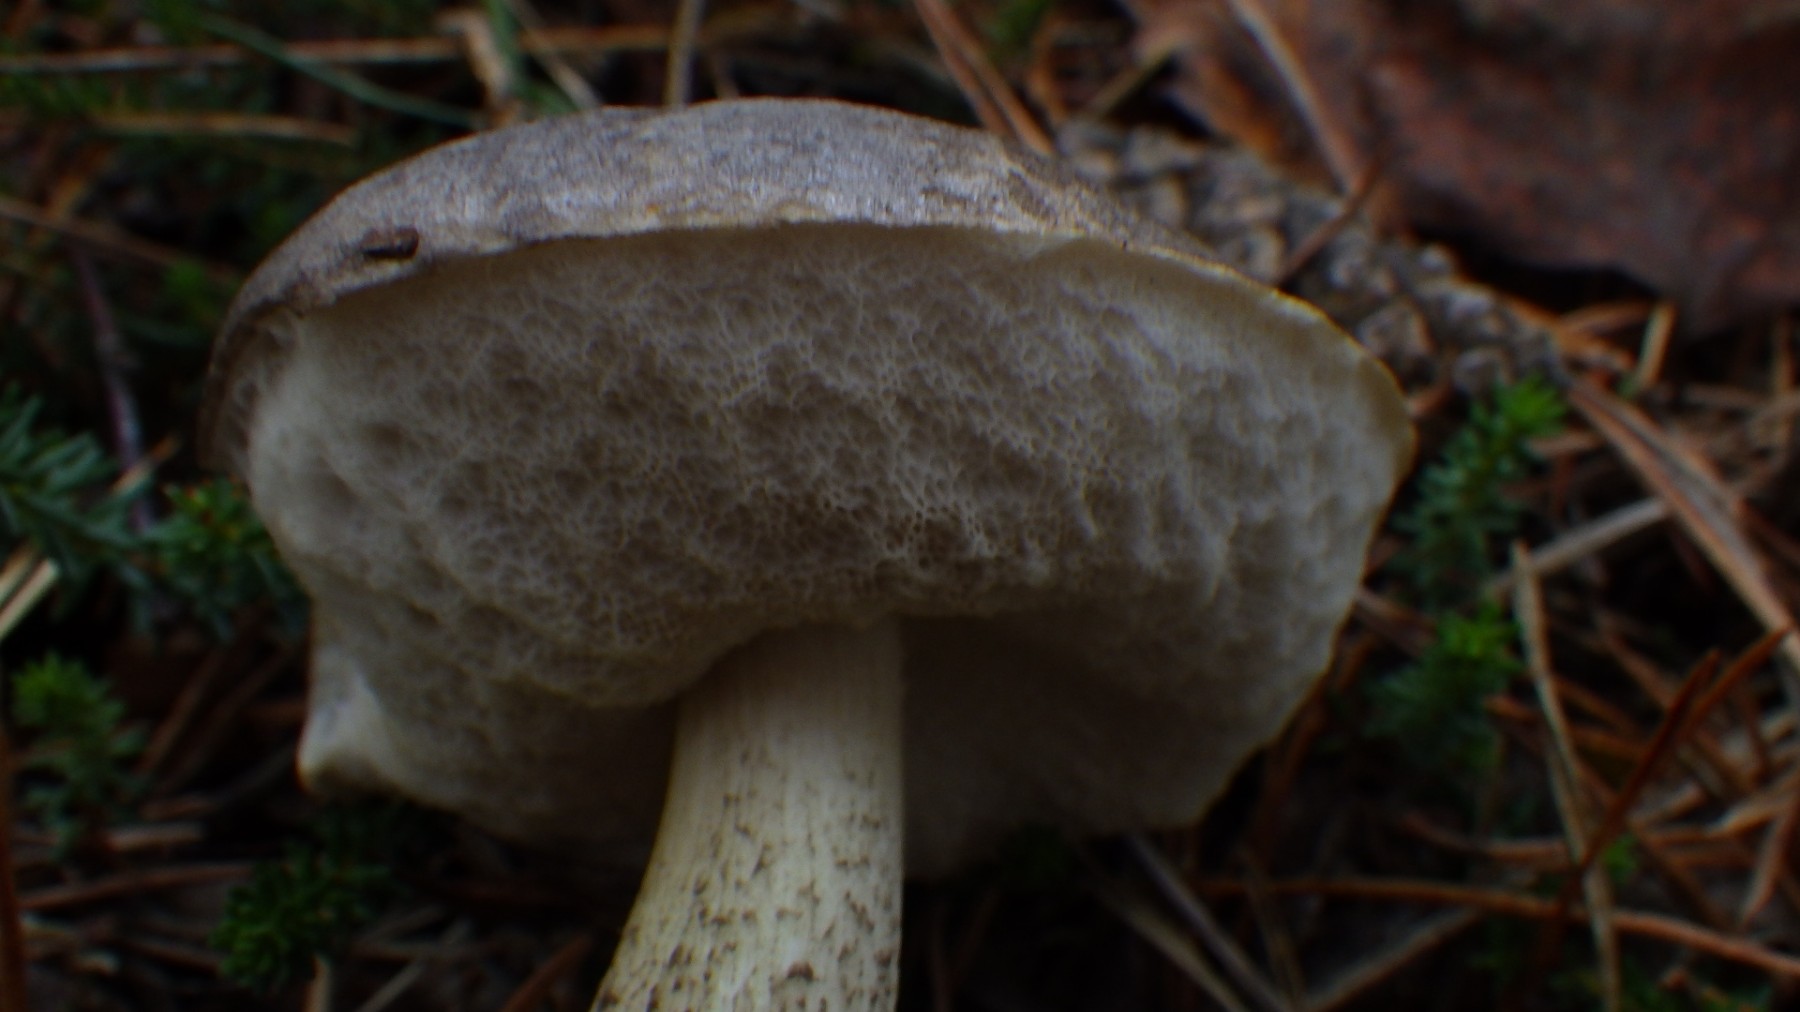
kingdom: Fungi
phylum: Basidiomycota
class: Agaricomycetes
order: Boletales
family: Boletaceae
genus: Leccinum
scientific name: Leccinum variicolor
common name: flammet skælrørhat
